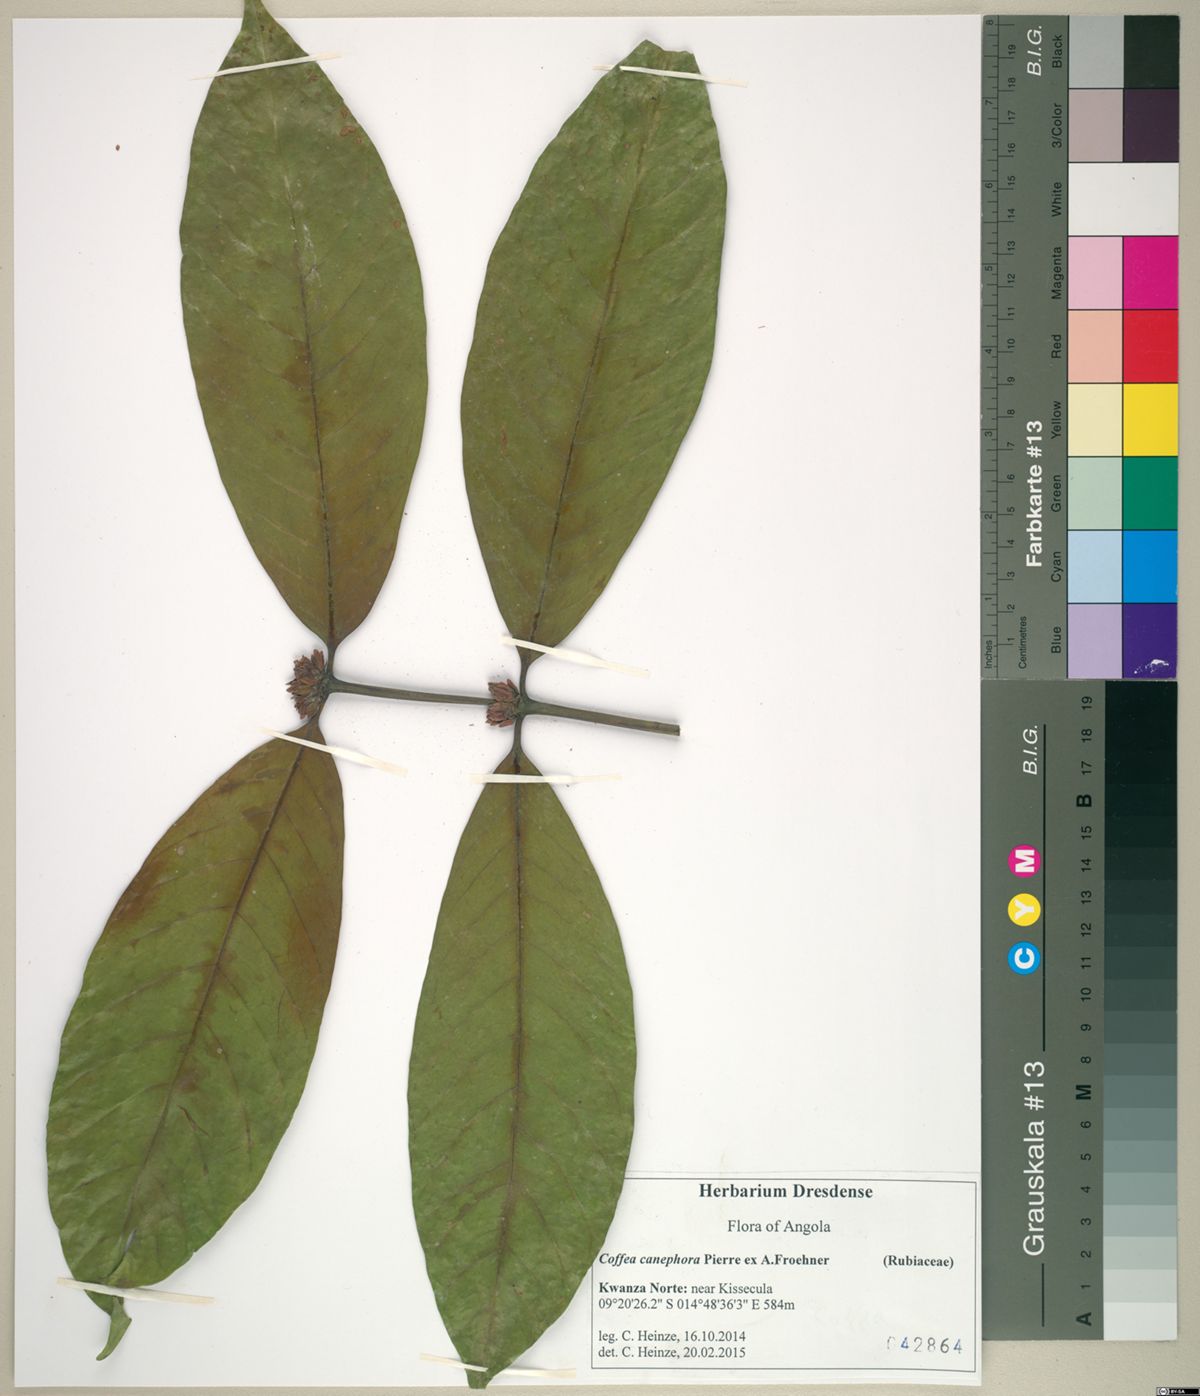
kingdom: Plantae
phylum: Tracheophyta
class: Magnoliopsida
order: Gentianales
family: Rubiaceae
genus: Coffea
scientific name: Coffea canephora
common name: Robusta coffee
